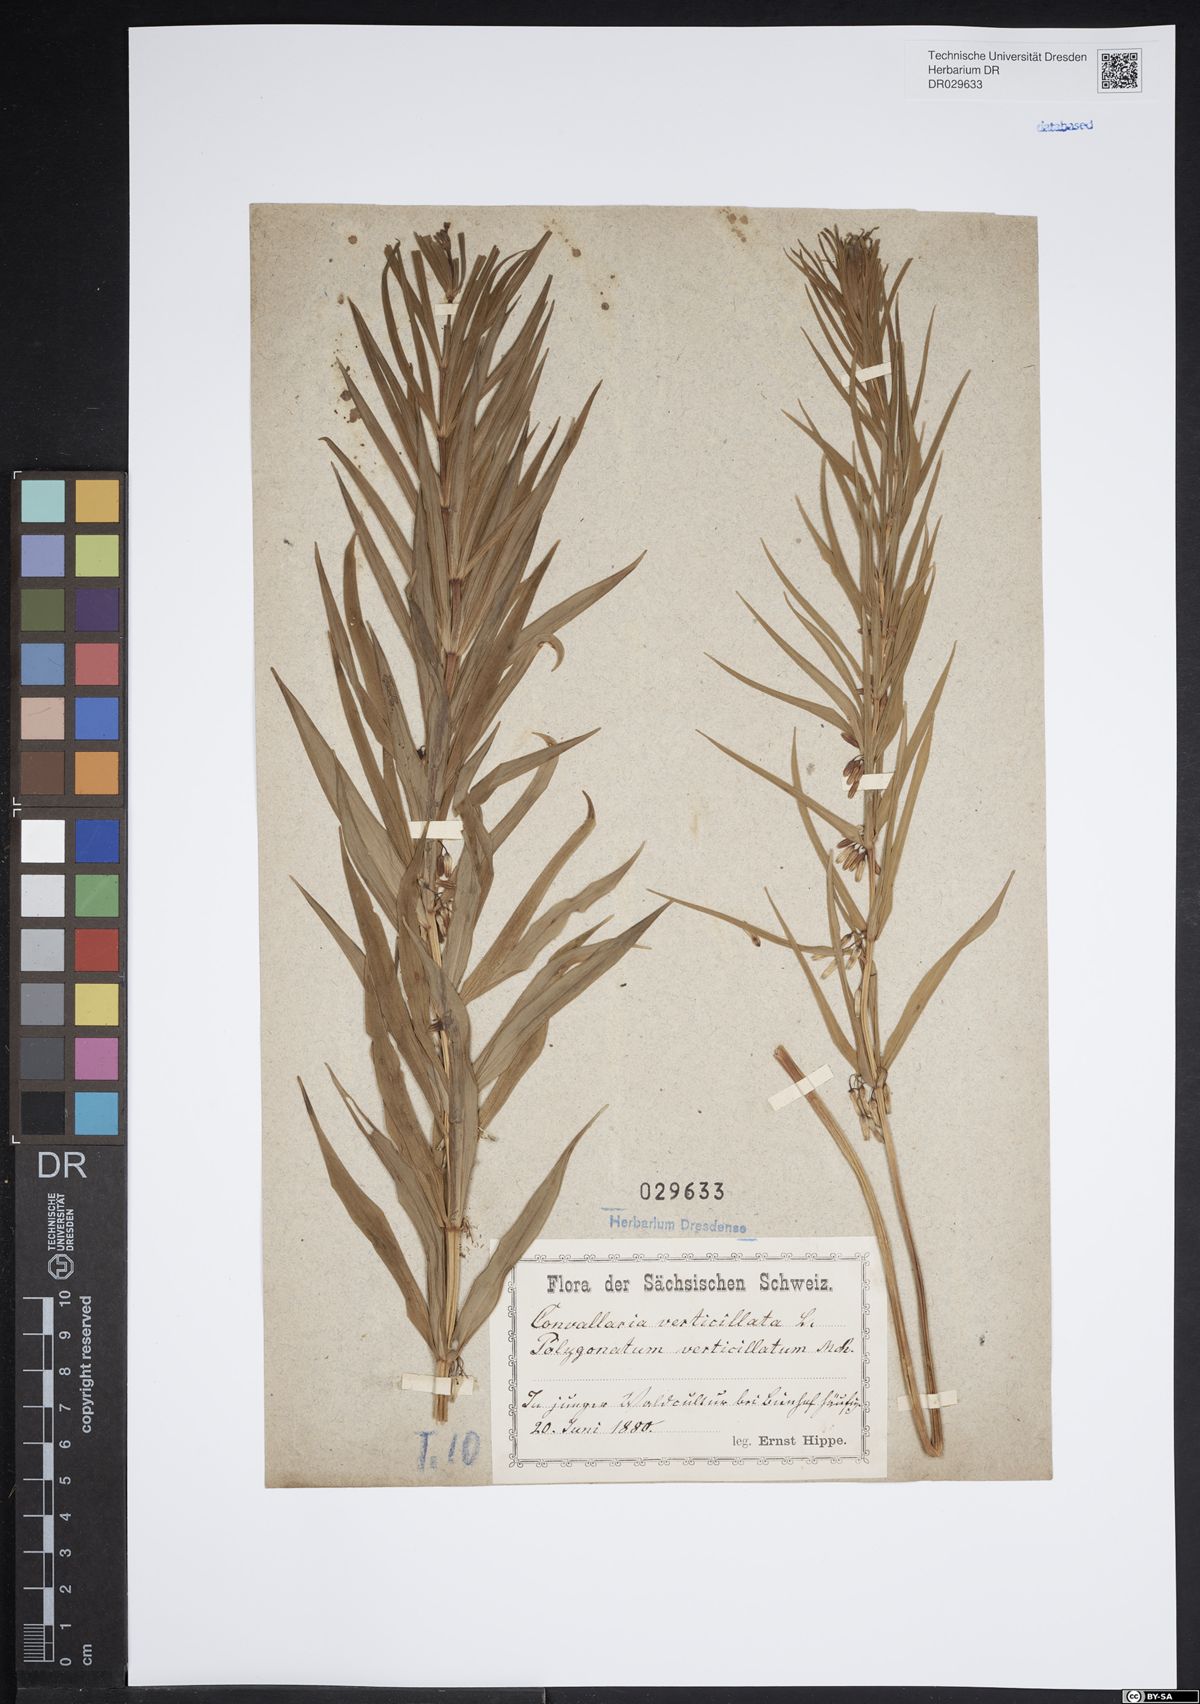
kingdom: Plantae
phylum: Tracheophyta
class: Liliopsida
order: Asparagales
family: Asparagaceae
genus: Polygonatum
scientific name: Polygonatum verticillatum
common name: Whorled solomon's-seal
